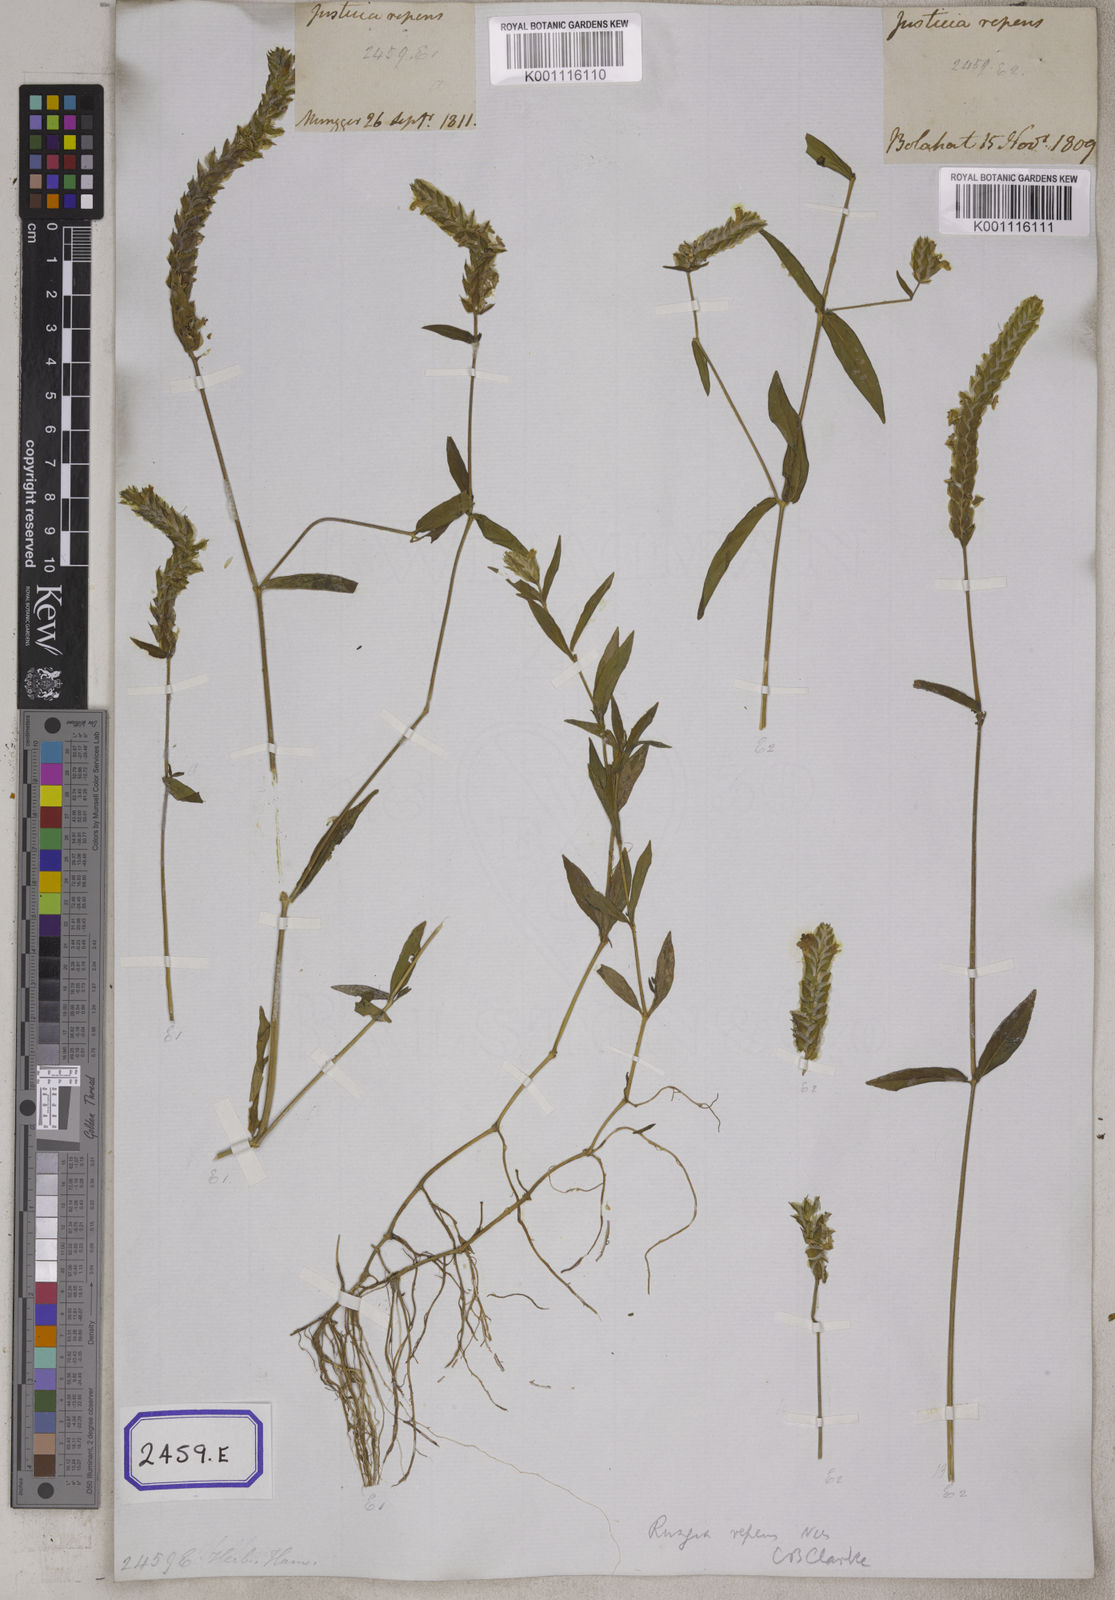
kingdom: Plantae
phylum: Tracheophyta
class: Magnoliopsida
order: Lamiales
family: Acanthaceae
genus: Justicia
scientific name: Justicia
